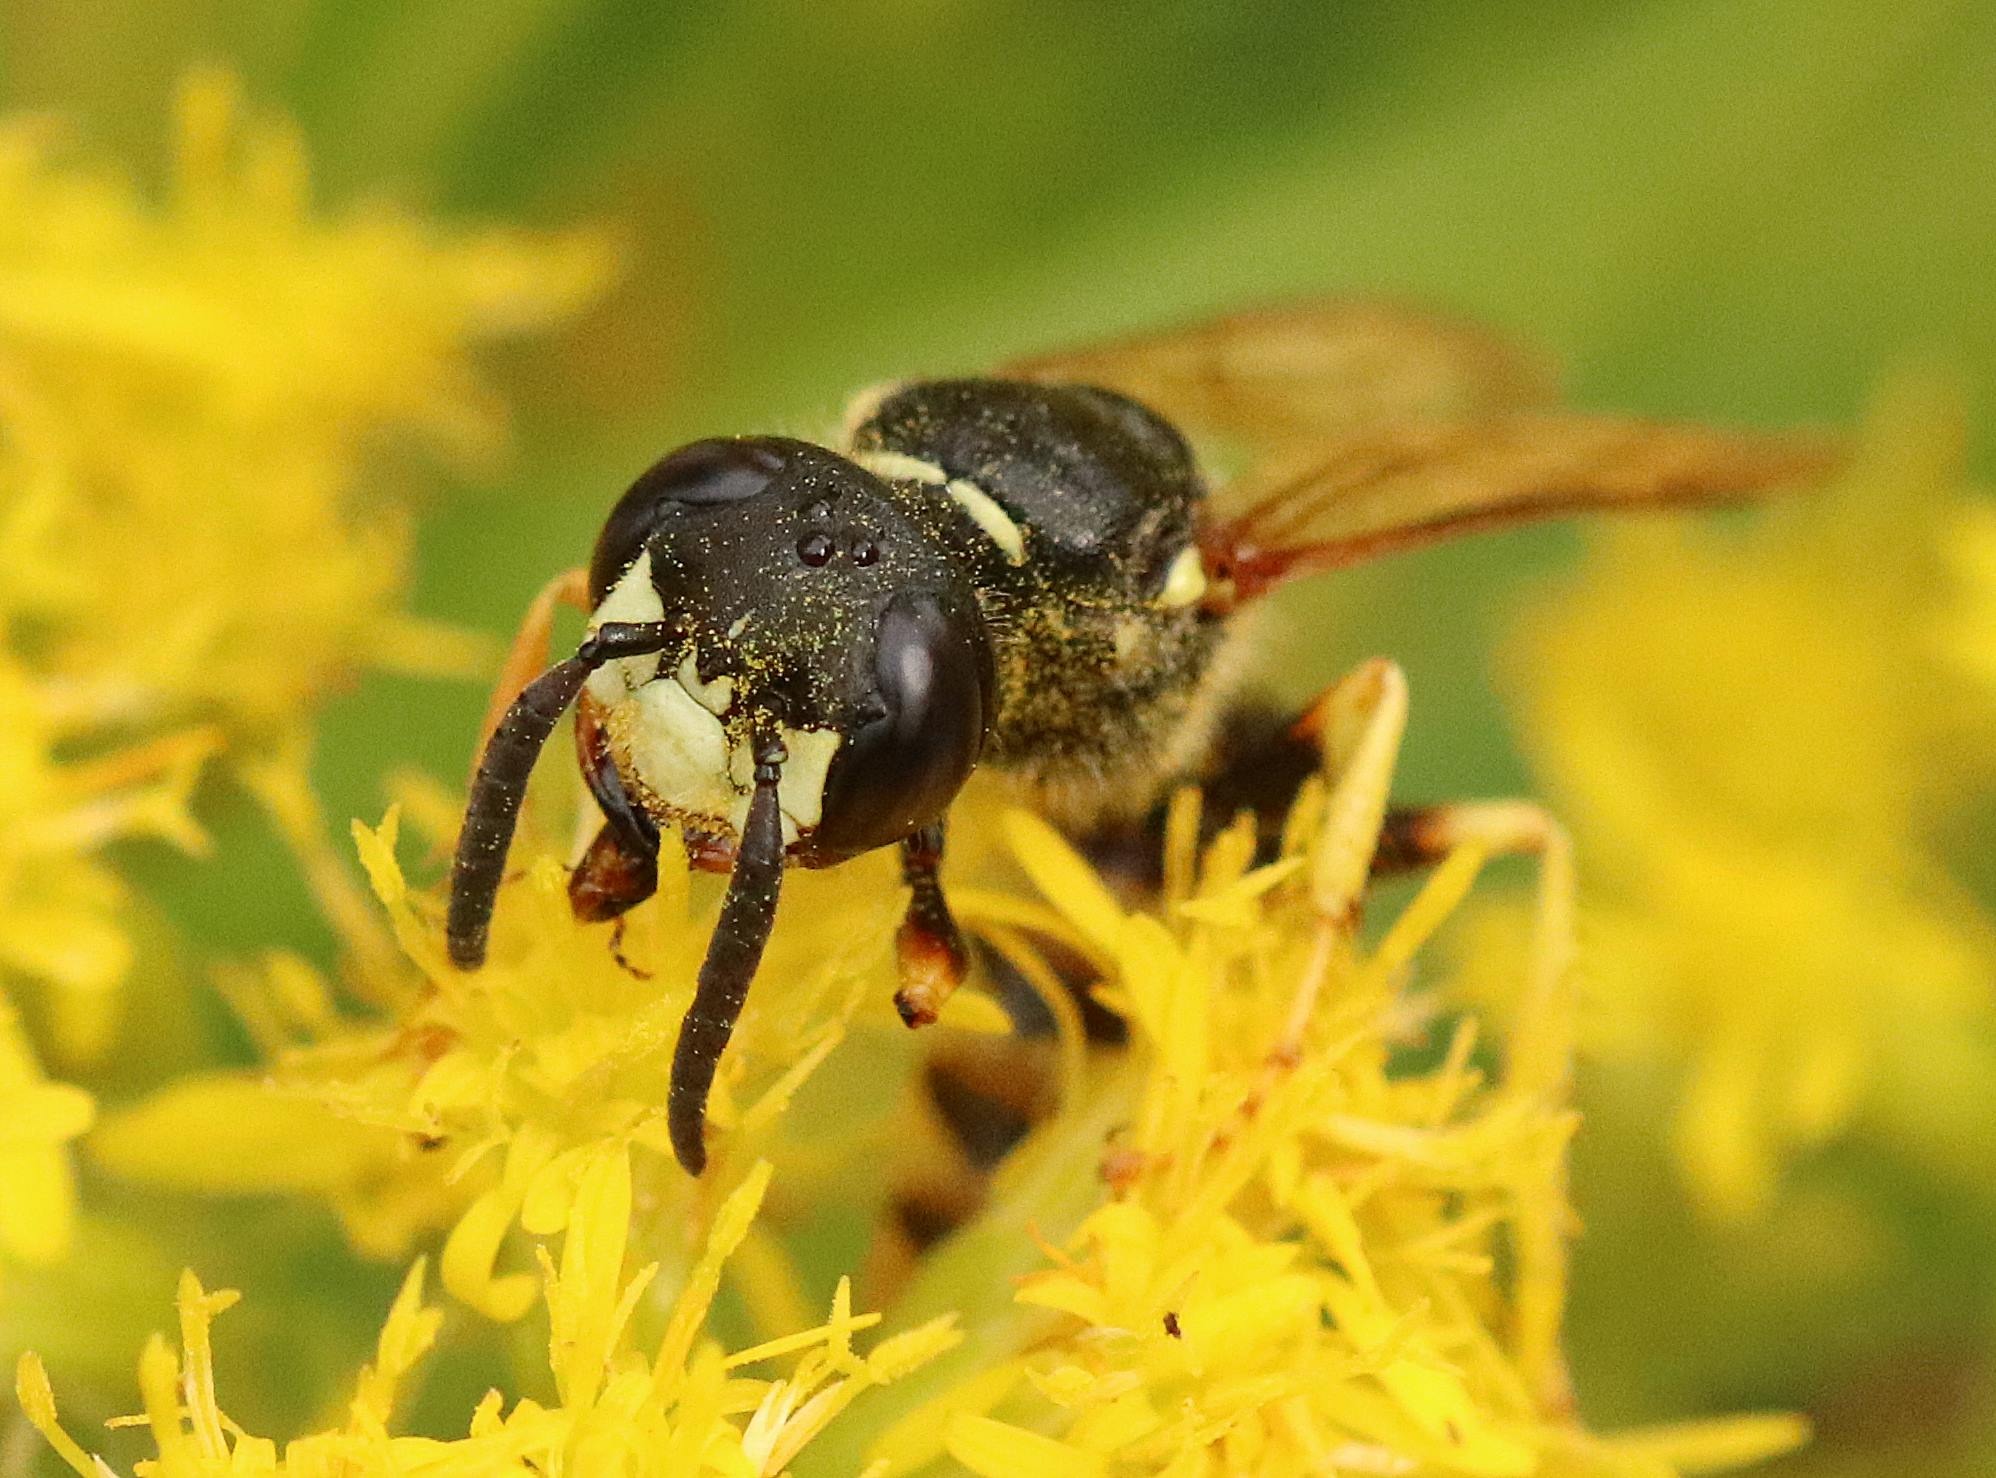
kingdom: Animalia
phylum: Arthropoda
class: Insecta
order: Hymenoptera
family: Crabronidae
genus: Philanthus
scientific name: Philanthus triangulum
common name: Biulv
